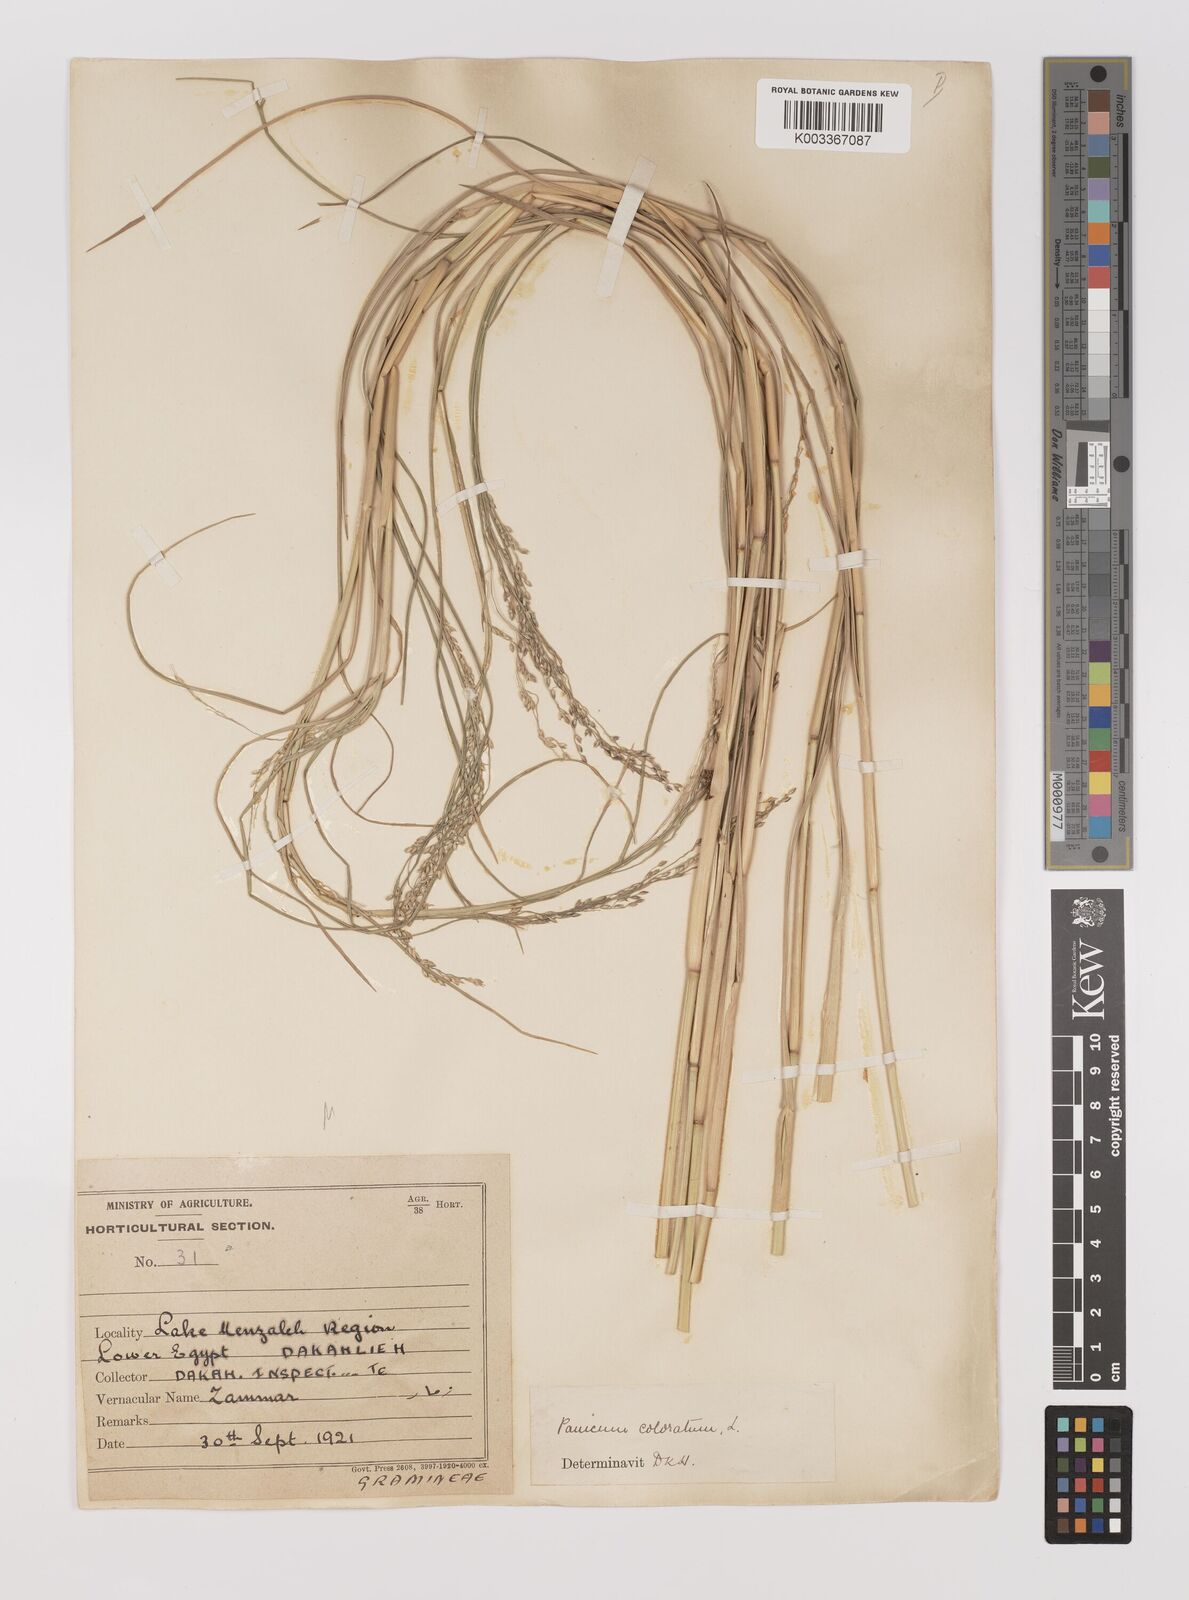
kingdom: Plantae
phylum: Tracheophyta
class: Liliopsida
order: Poales
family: Poaceae
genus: Panicum
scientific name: Panicum coloratum
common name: Kleingrass
